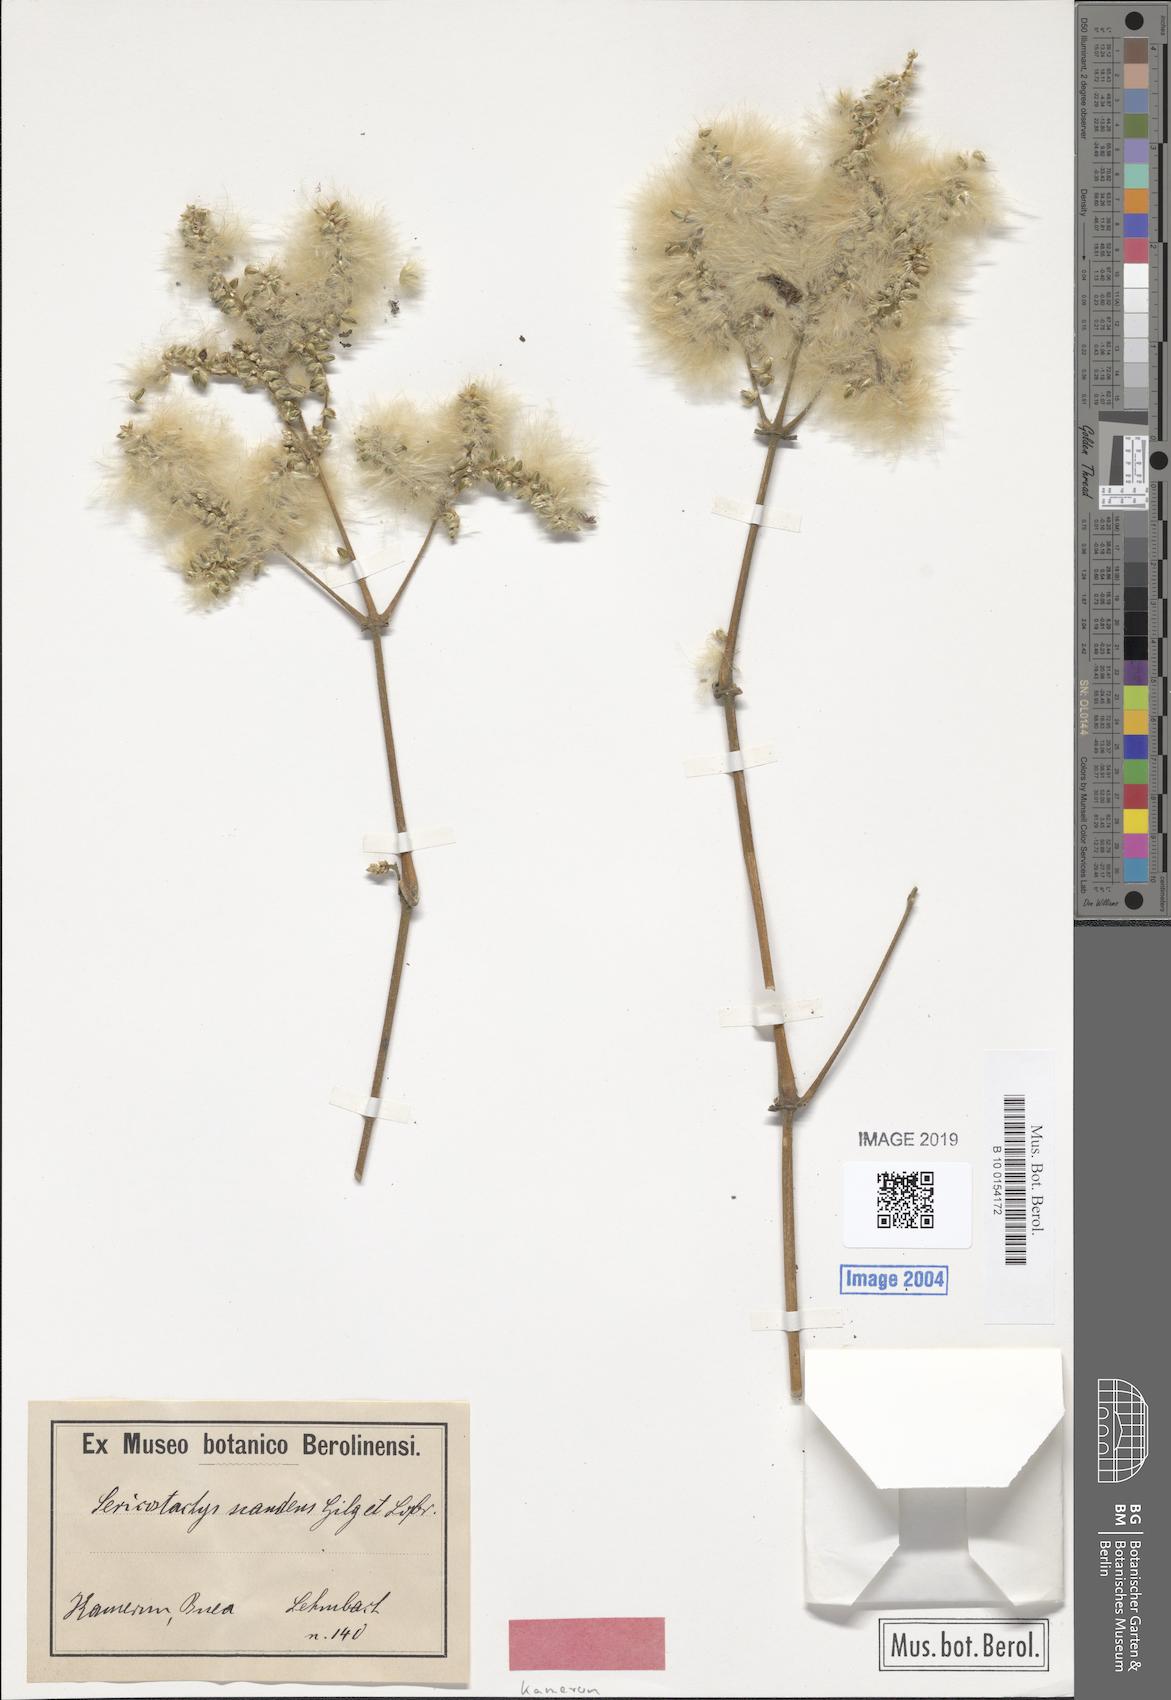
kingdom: Plantae
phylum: Tracheophyta
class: Magnoliopsida
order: Caryophyllales
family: Amaranthaceae
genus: Sericostachys
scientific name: Sericostachys scandens
